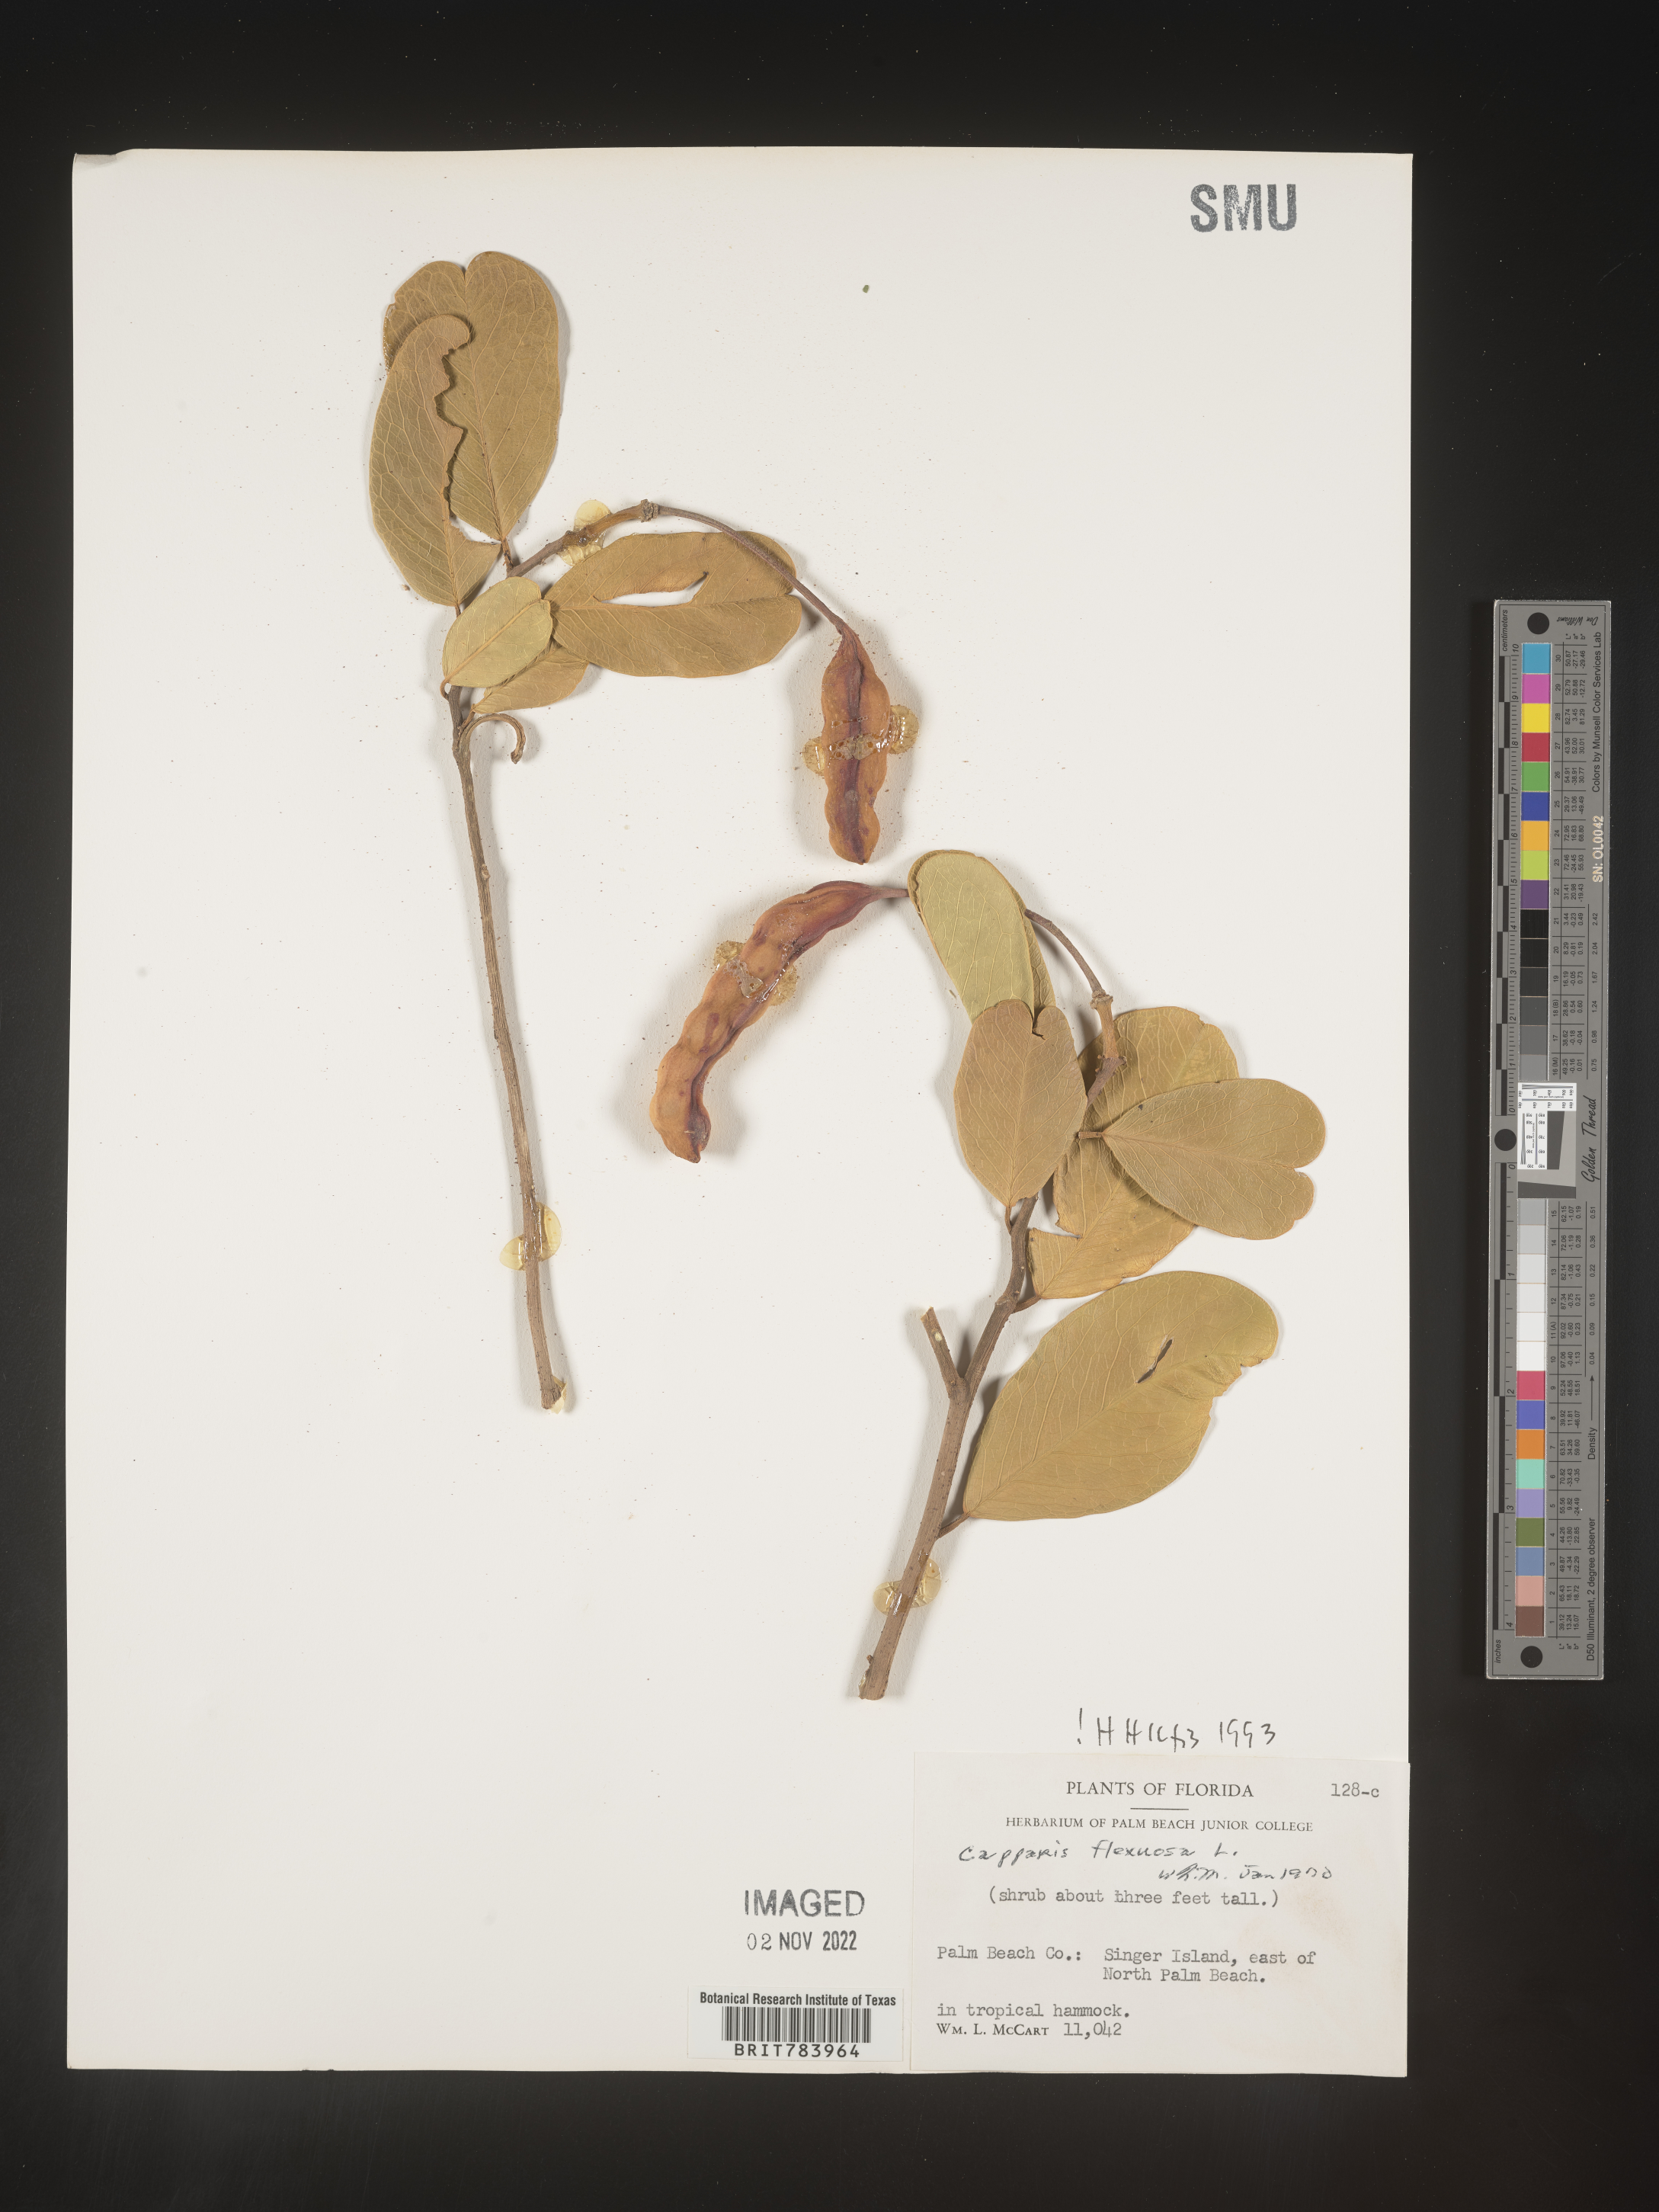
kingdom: Plantae
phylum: Tracheophyta
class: Magnoliopsida
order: Brassicales
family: Capparaceae
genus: Capparis
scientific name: Capparis
